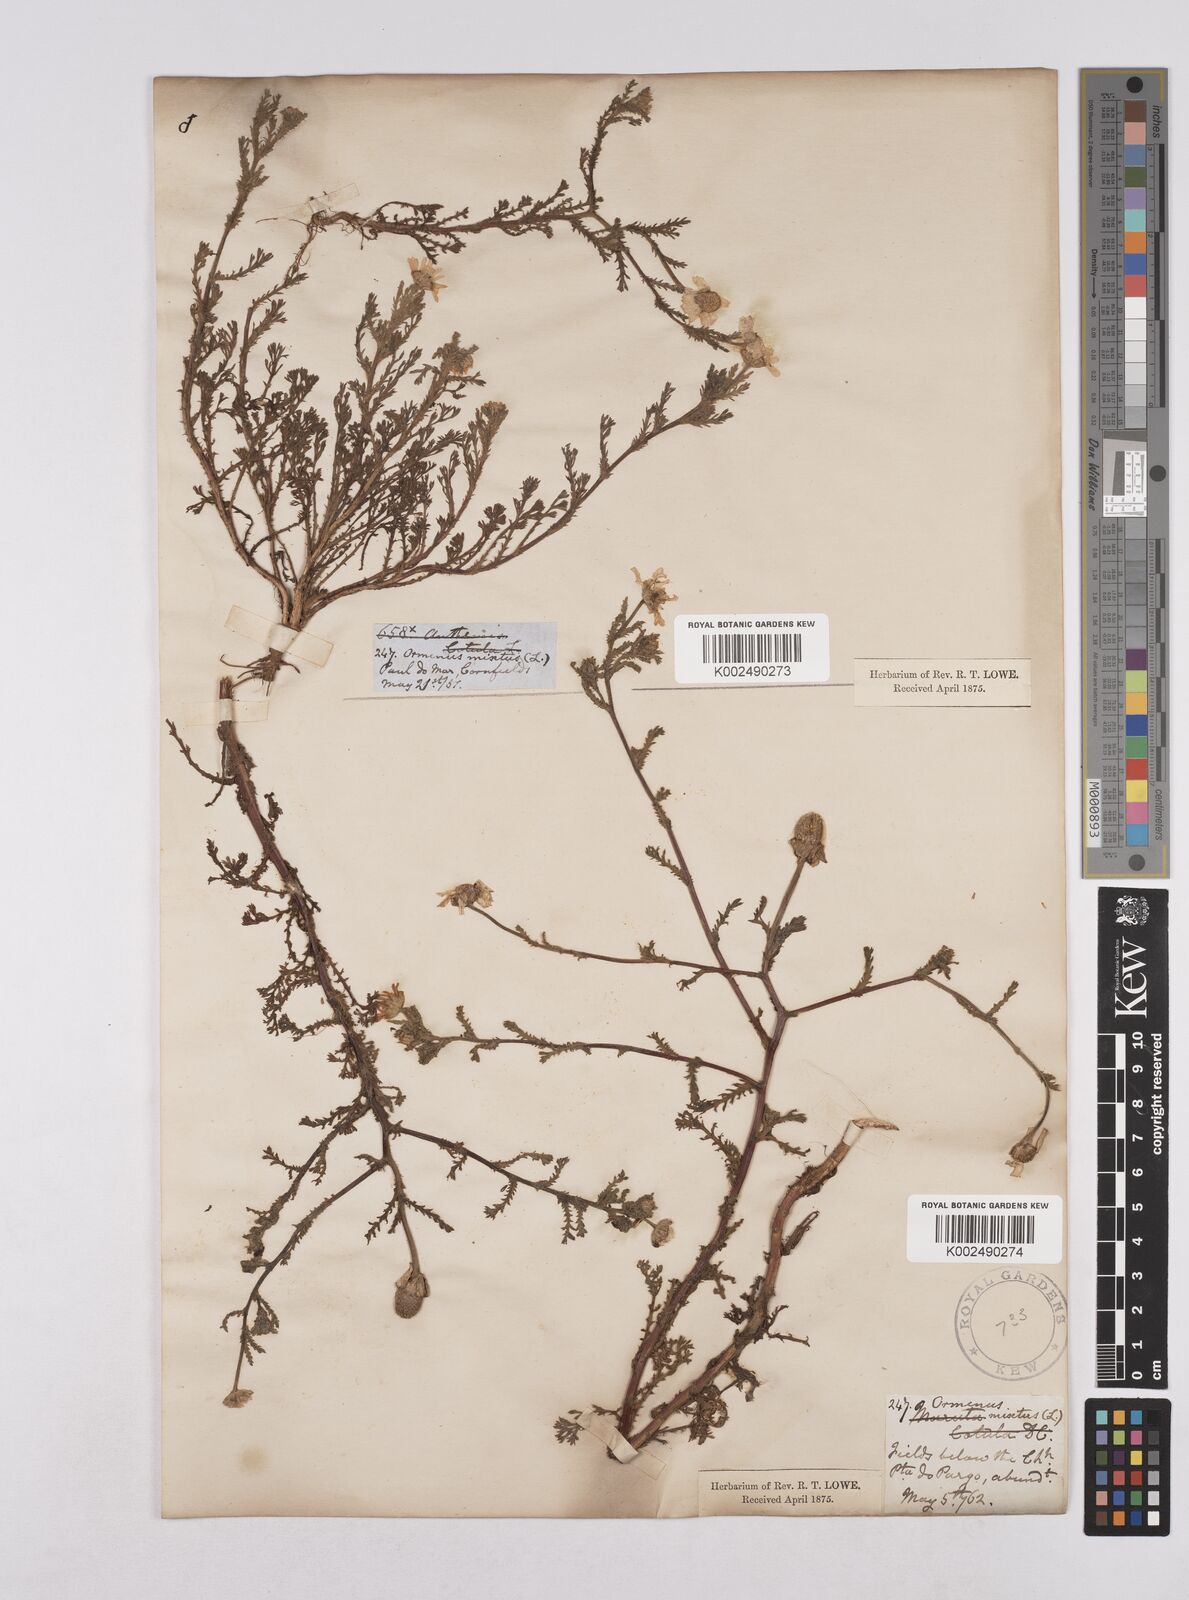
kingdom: Plantae
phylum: Tracheophyta
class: Magnoliopsida
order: Asterales
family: Asteraceae
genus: Cladanthus
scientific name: Cladanthus mixtus
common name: Weedy dogfennel
